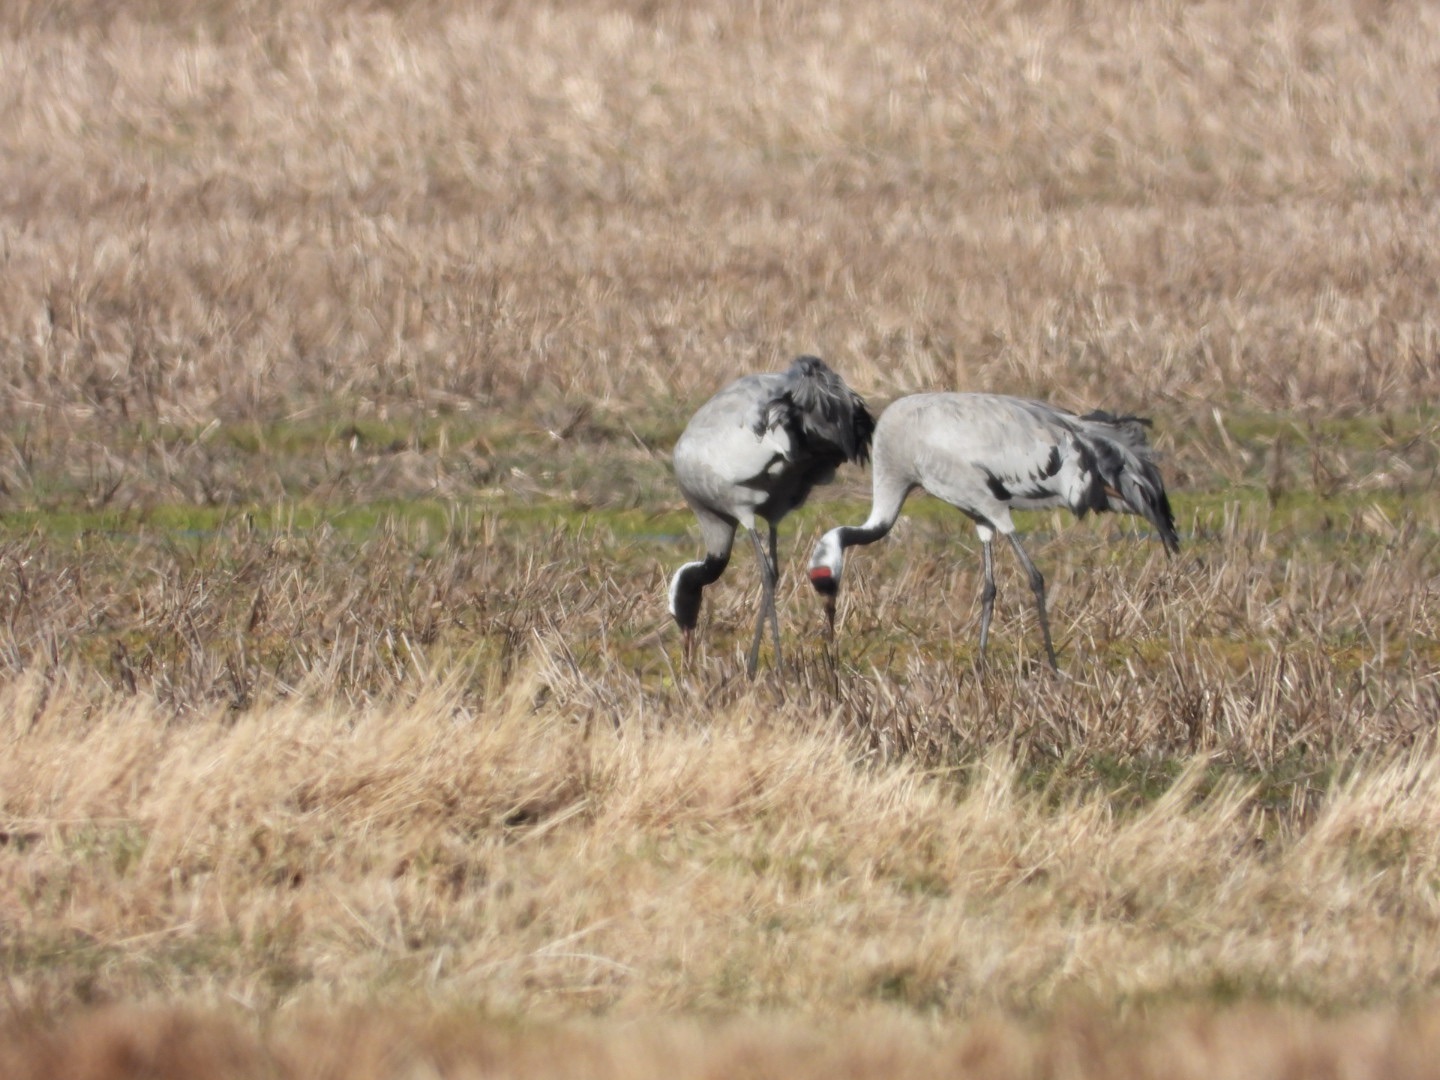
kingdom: Animalia
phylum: Chordata
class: Aves
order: Gruiformes
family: Gruidae
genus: Grus
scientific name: Grus grus
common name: Trane
